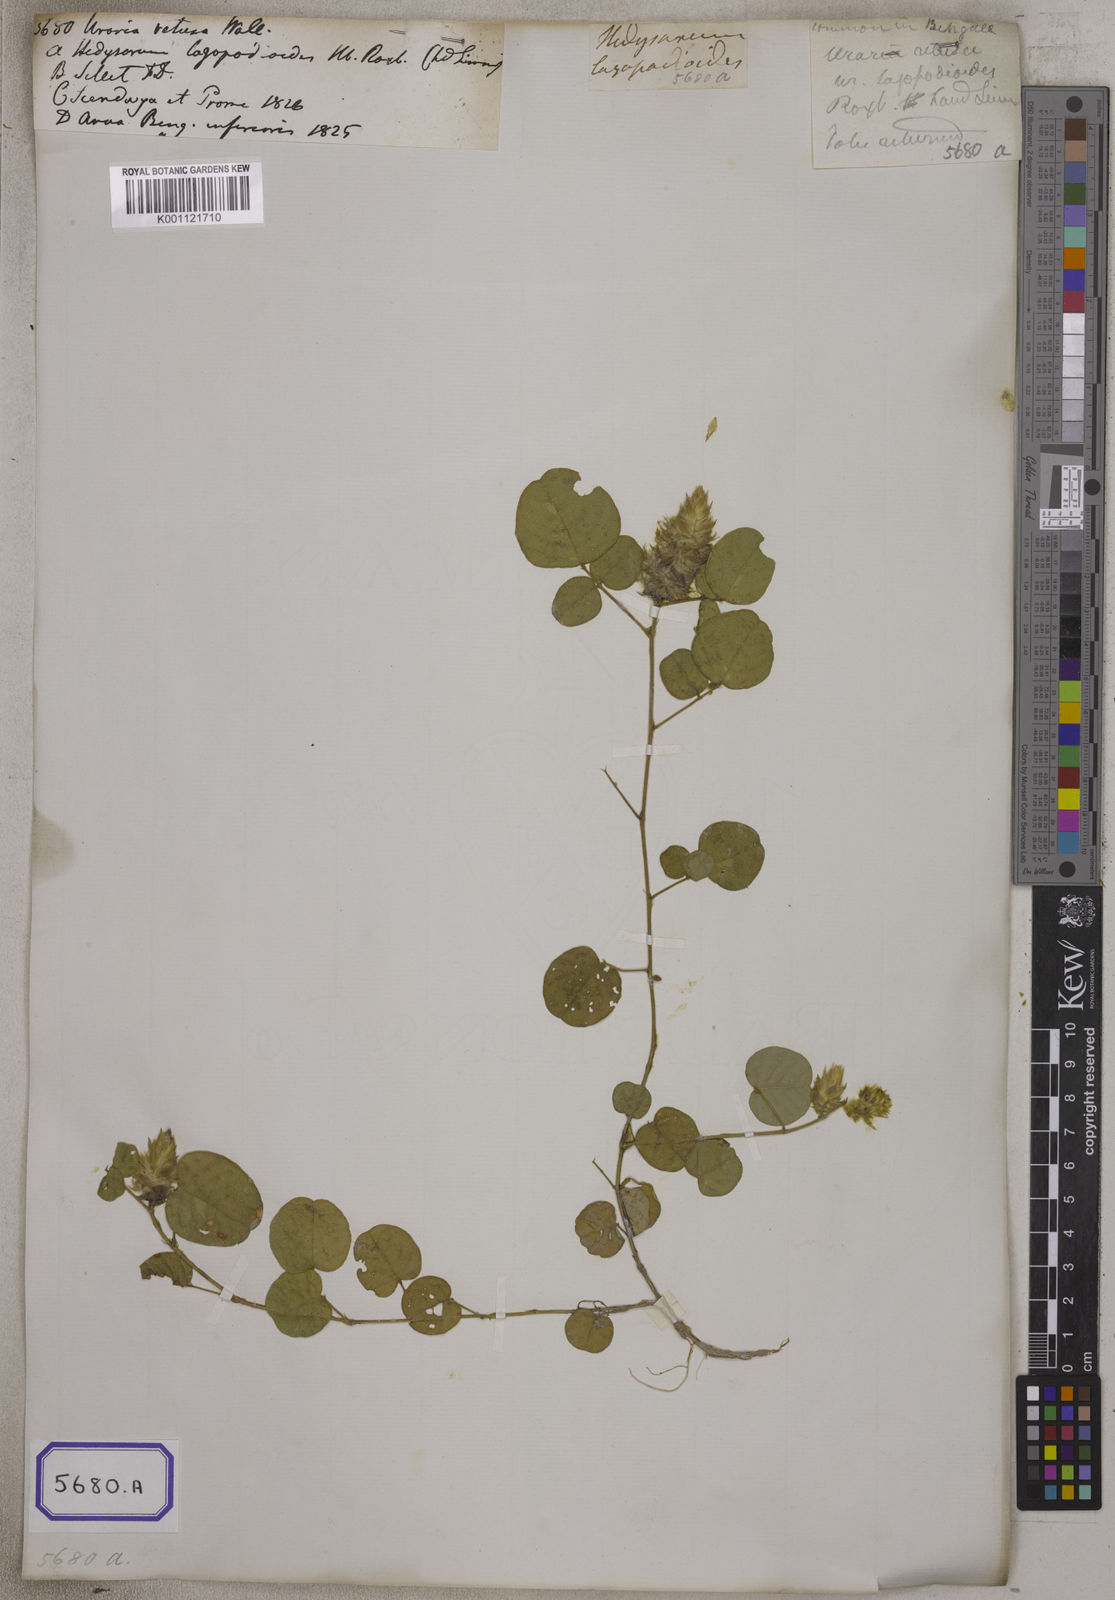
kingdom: Plantae
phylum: Tracheophyta
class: Magnoliopsida
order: Fabales
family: Fabaceae
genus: Uraria
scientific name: Uraria lagopodioides
